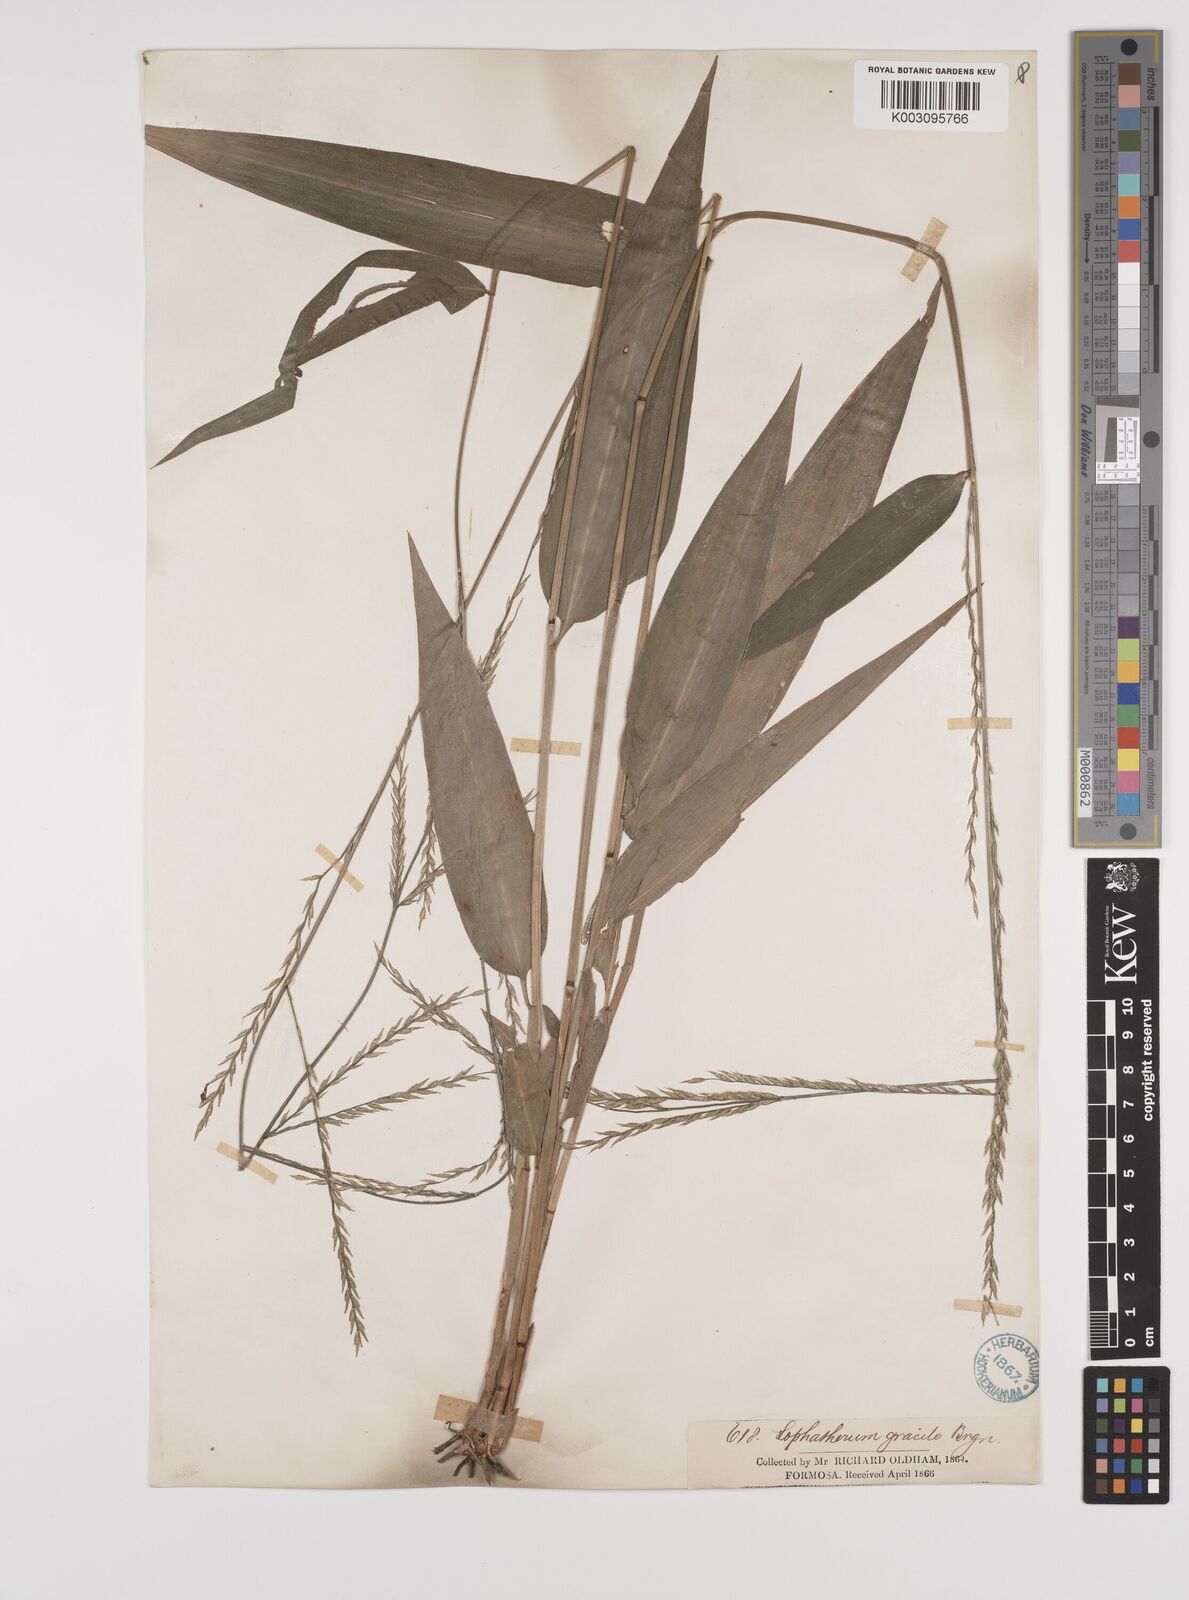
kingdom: Plantae
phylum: Tracheophyta
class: Liliopsida
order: Poales
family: Poaceae
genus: Lophatherum
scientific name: Lophatherum gracile
